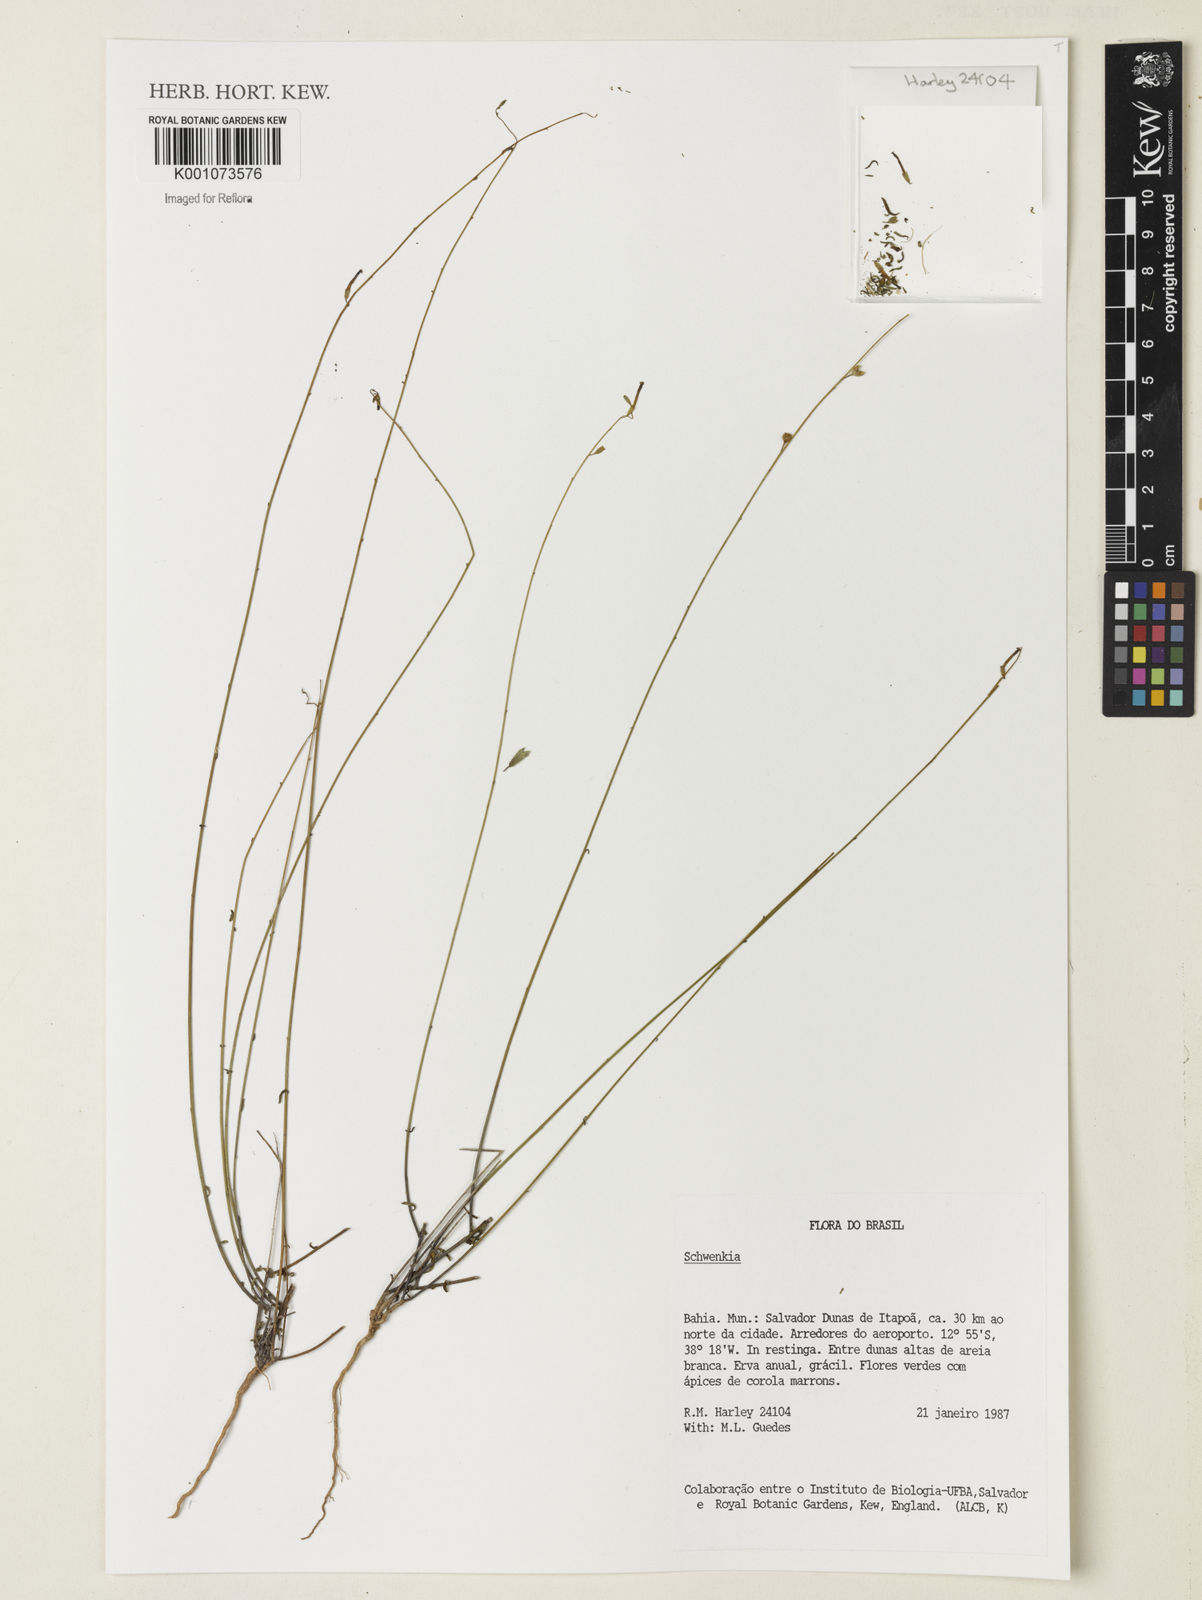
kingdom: Plantae
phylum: Tracheophyta
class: Magnoliopsida
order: Solanales
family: Solanaceae
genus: Schwenckia
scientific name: Schwenckia
